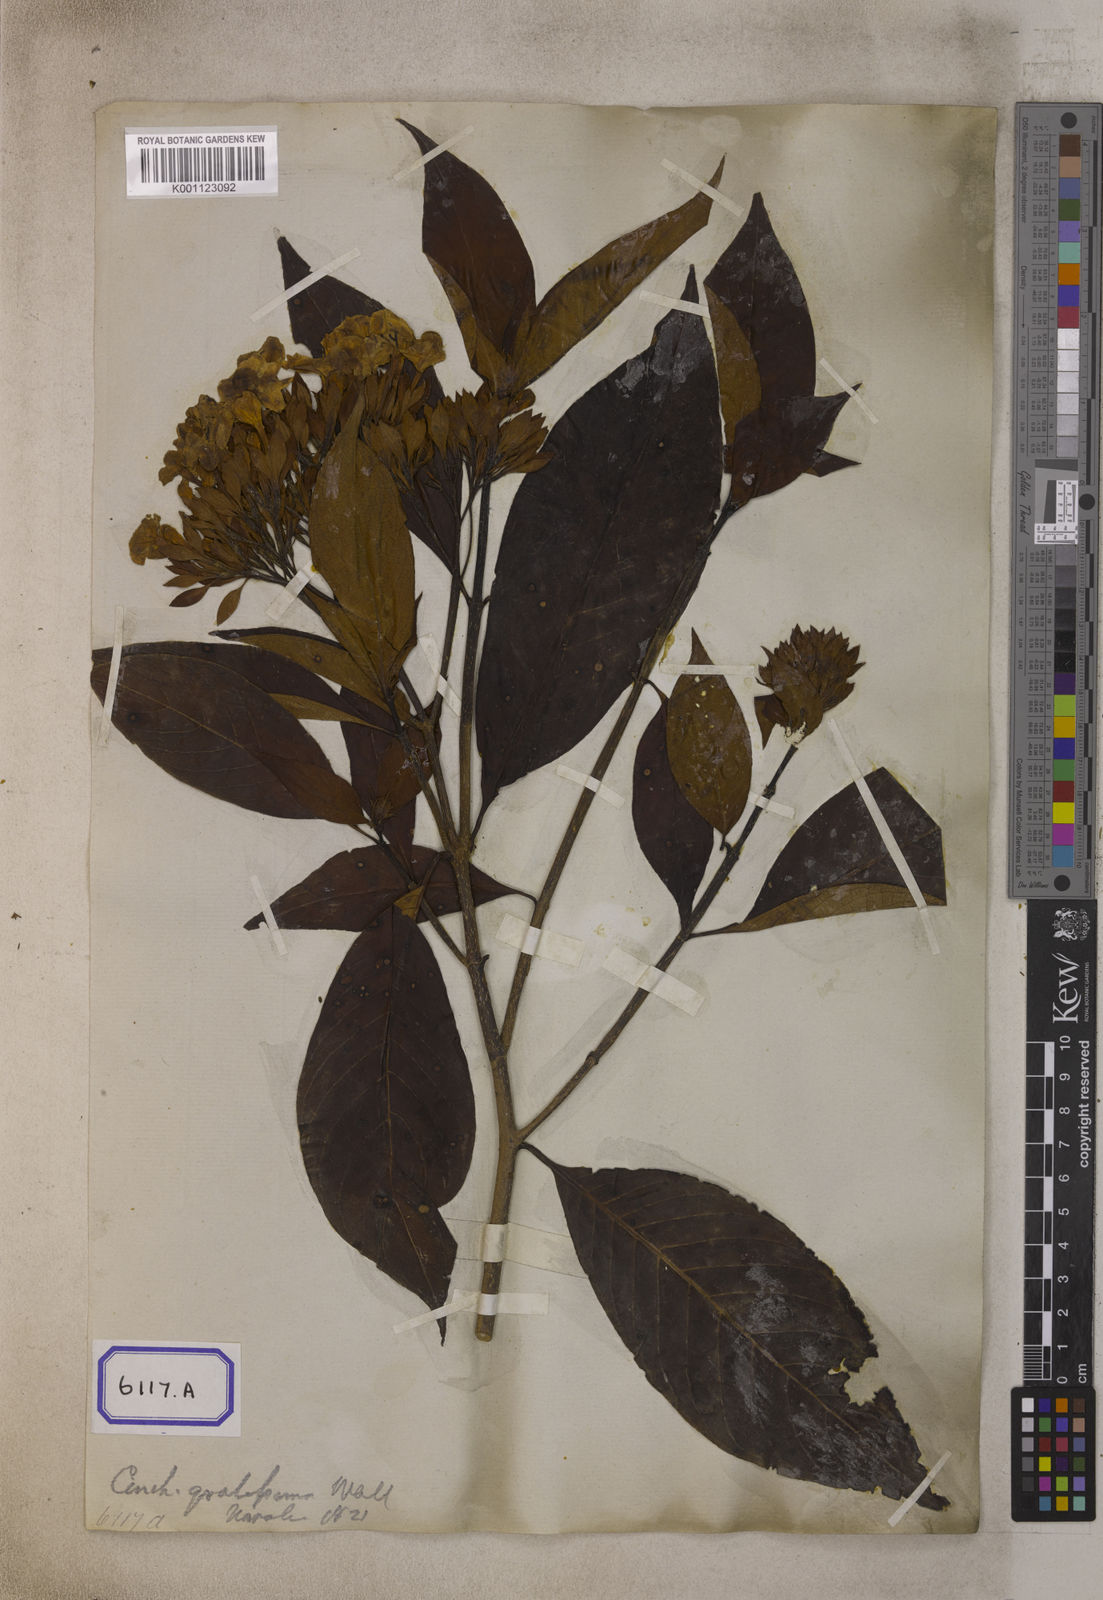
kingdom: Plantae
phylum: Tracheophyta
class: Magnoliopsida
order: Gentianales
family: Rubiaceae
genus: Luculia
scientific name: Luculia gratissima
